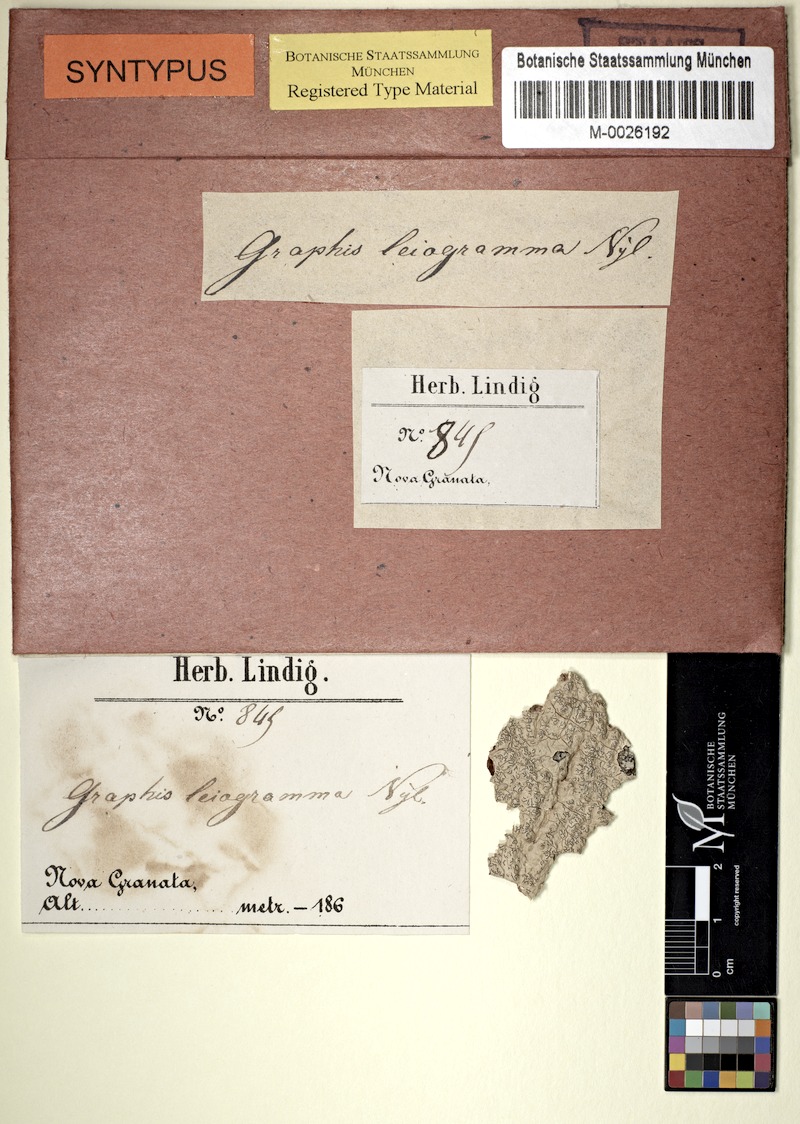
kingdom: Fungi
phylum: Ascomycota
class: Lecanoromycetes
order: Ostropales
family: Graphidaceae
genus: Platythecium
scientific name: Platythecium leiogramma
